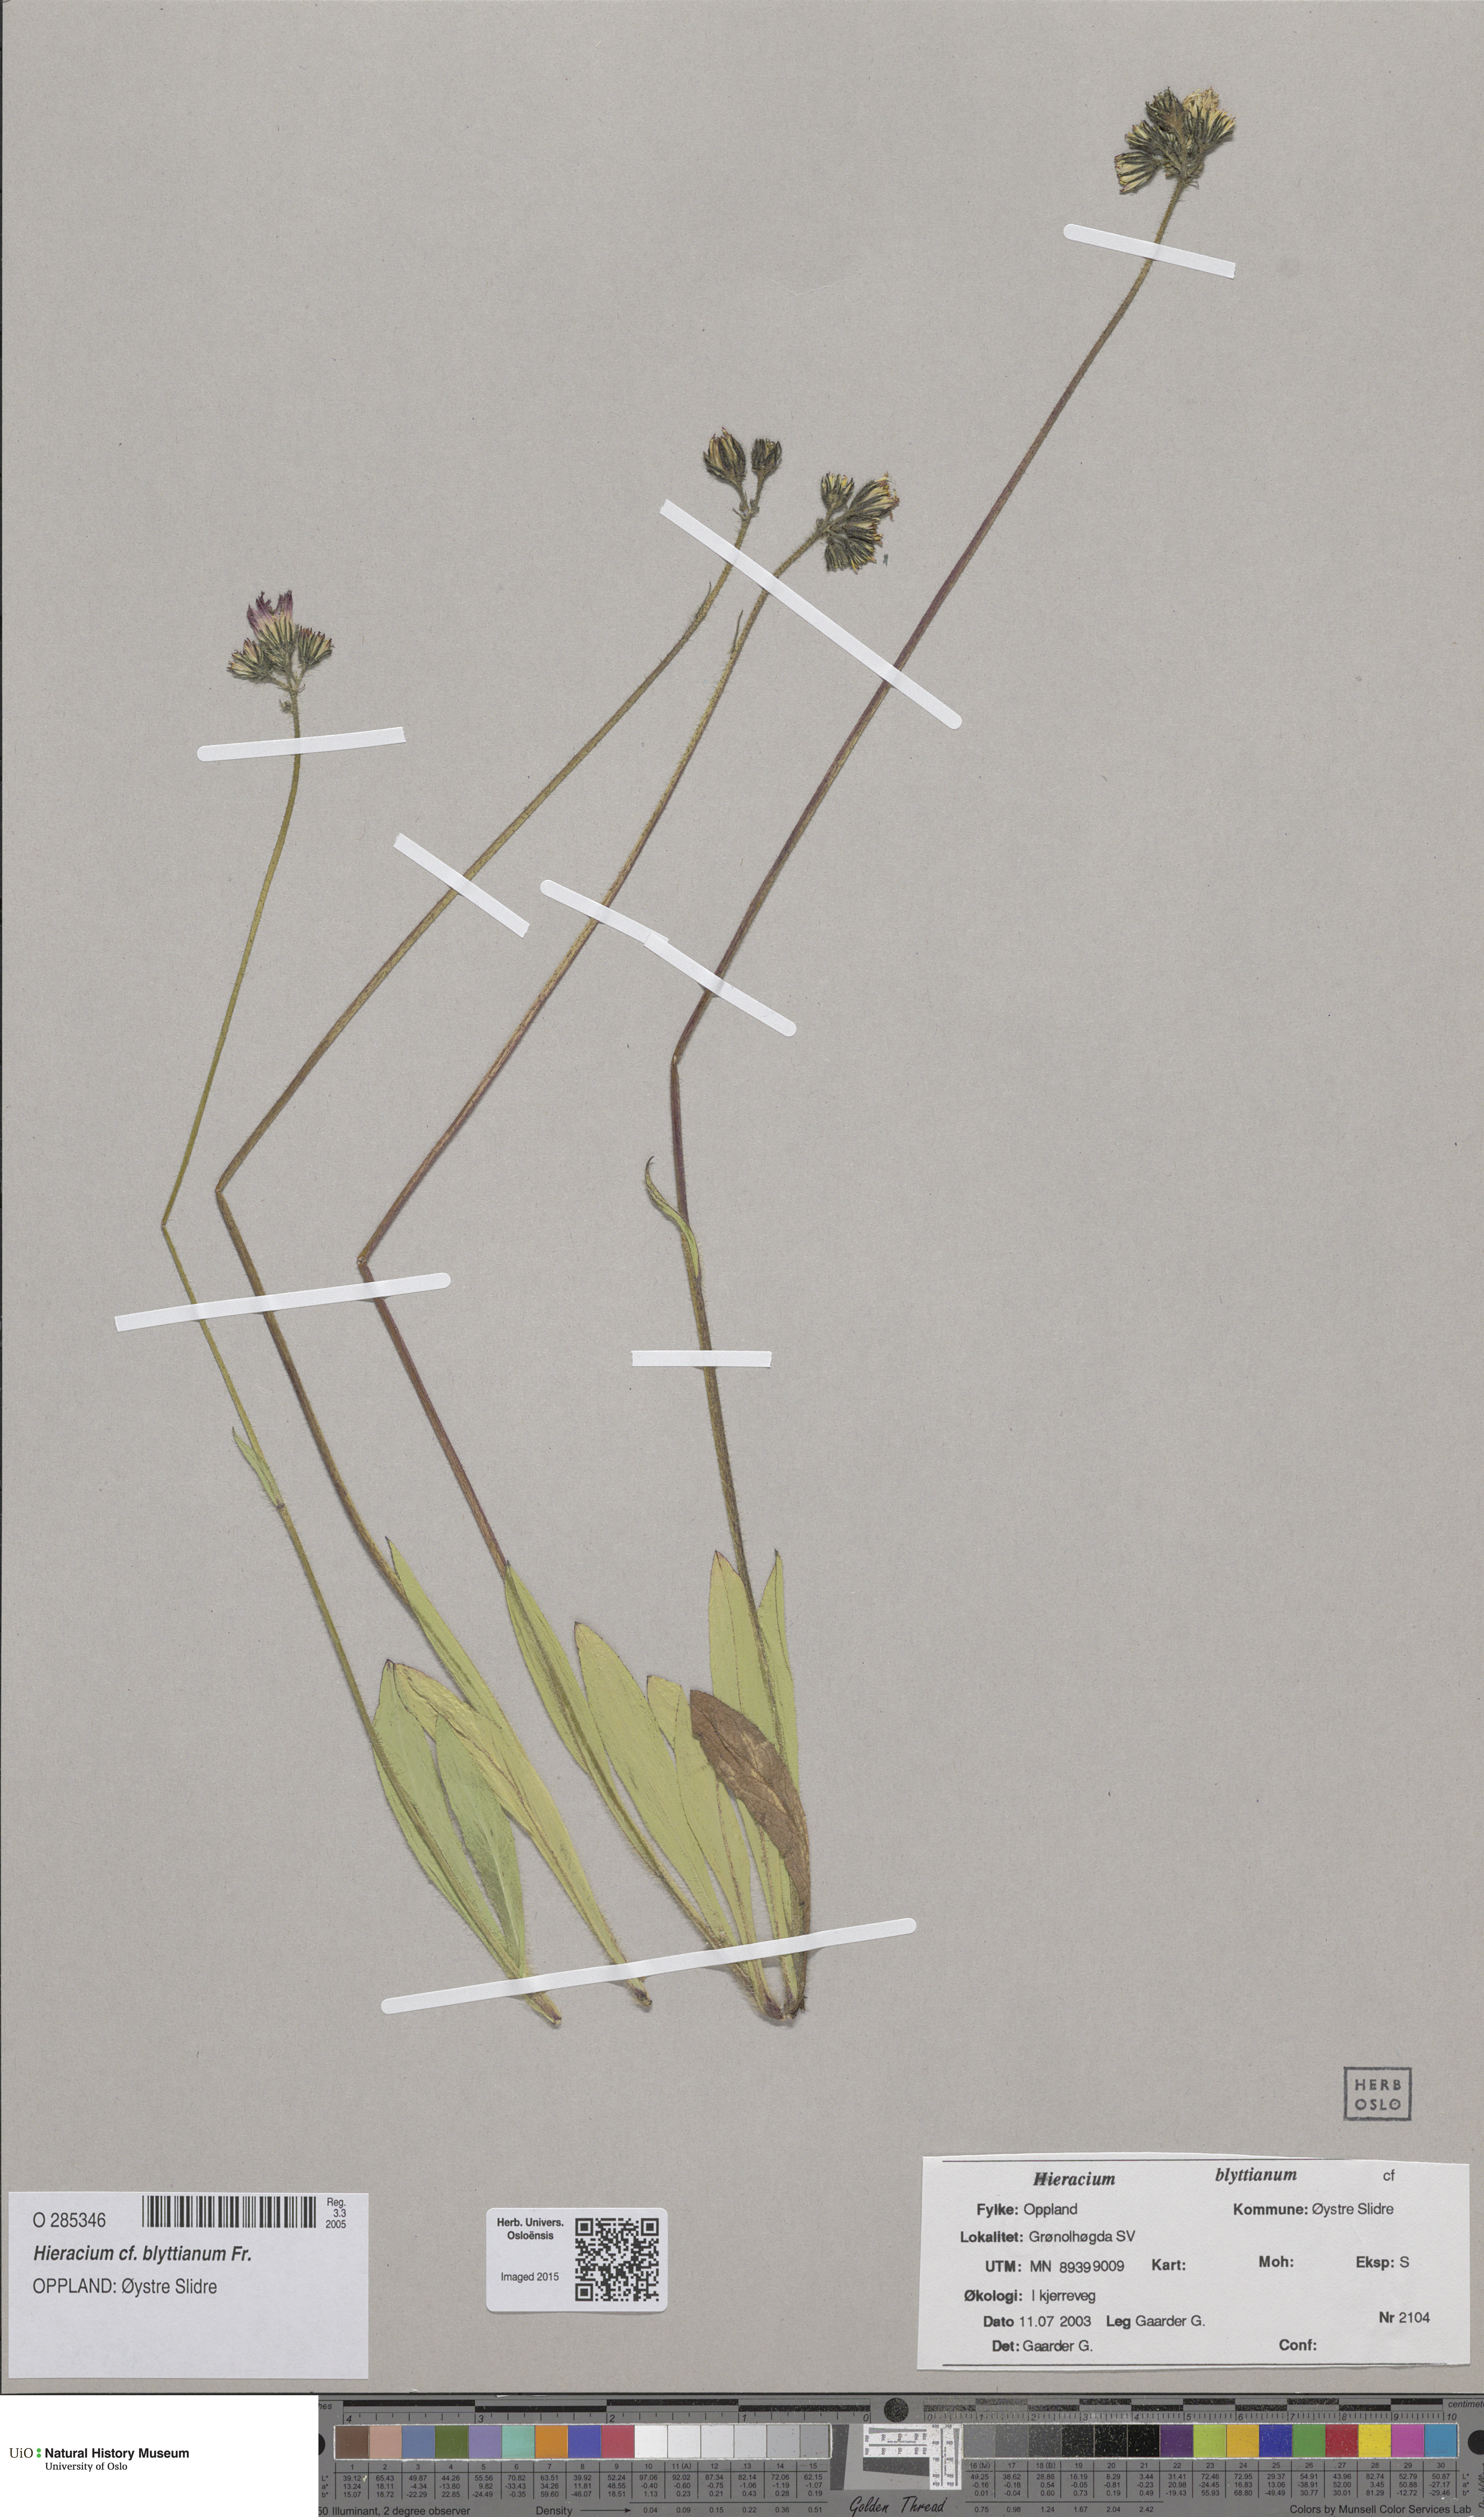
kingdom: Plantae
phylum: Tracheophyta
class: Magnoliopsida
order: Asterales
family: Asteraceae
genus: Pilosella
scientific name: Pilosella blyttiana
